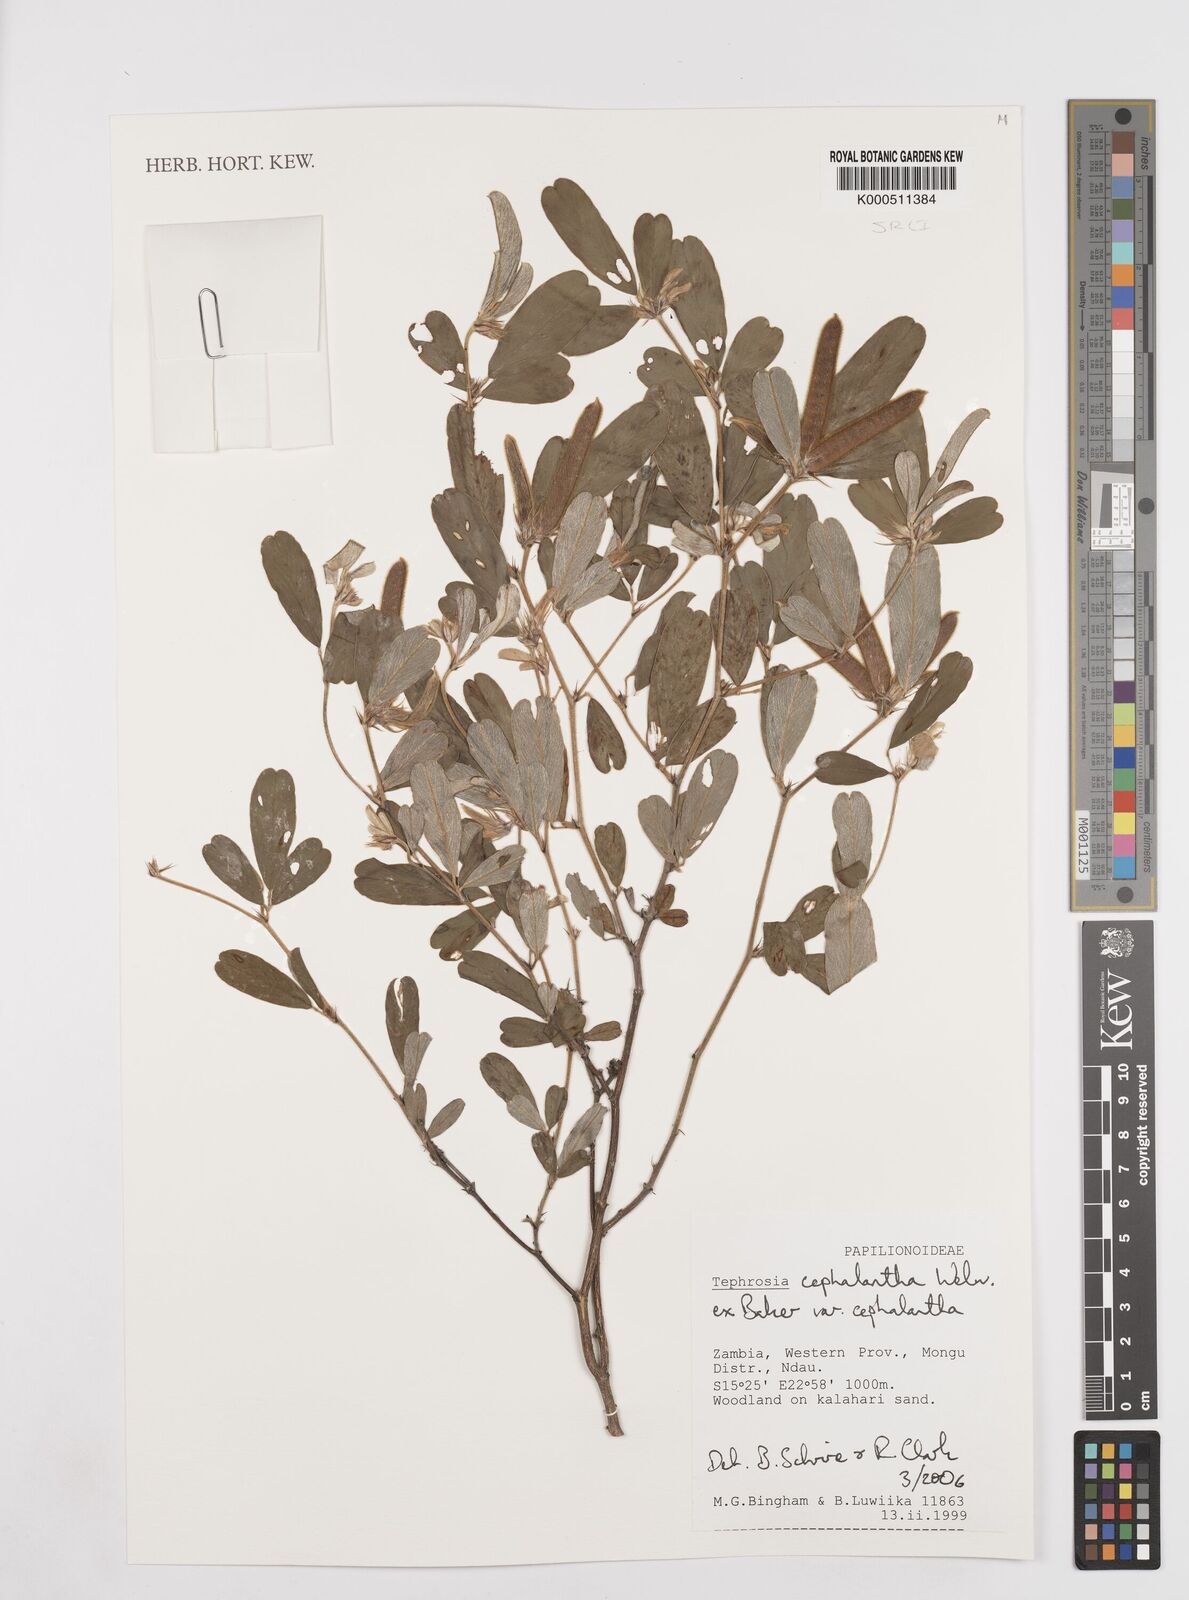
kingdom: Plantae
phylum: Tracheophyta
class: Magnoliopsida
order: Fabales
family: Fabaceae
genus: Tephrosia
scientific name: Tephrosia cephalantha
